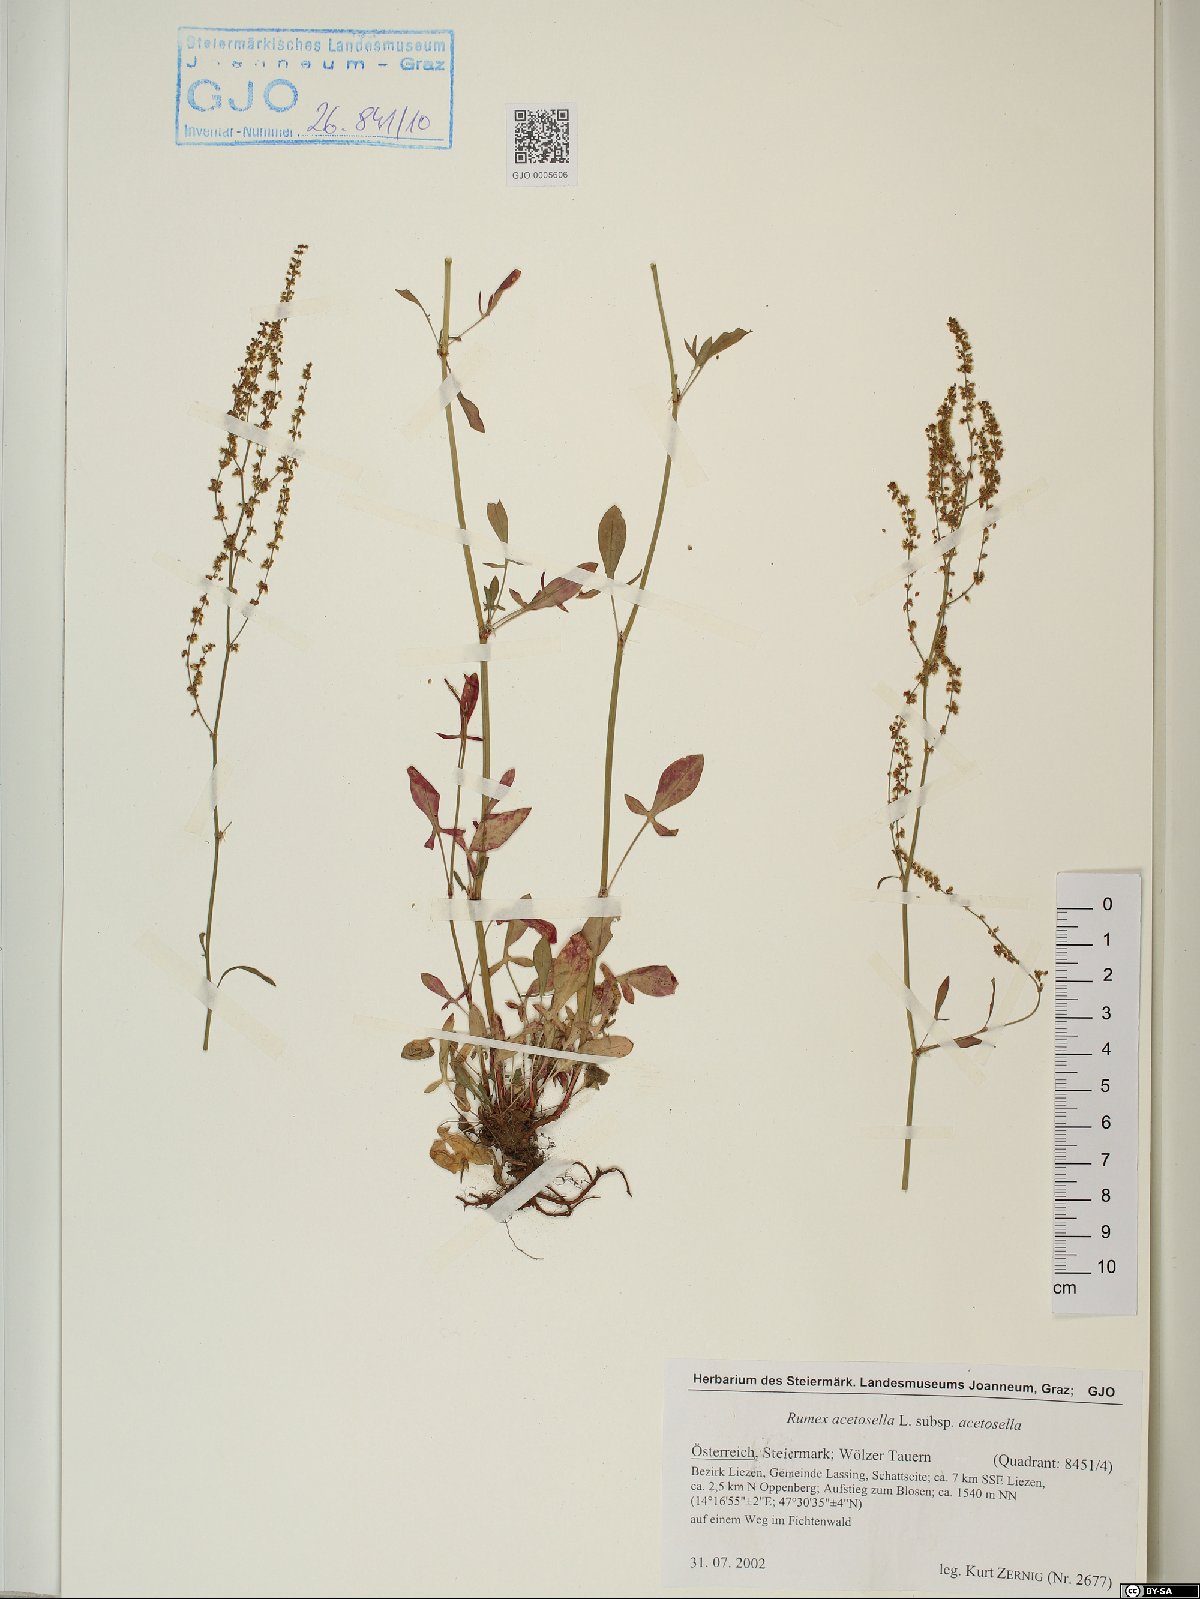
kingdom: Plantae
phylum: Tracheophyta
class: Magnoliopsida
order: Caryophyllales
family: Polygonaceae
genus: Rumex
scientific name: Rumex acetosella
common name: Common sheep sorrel
